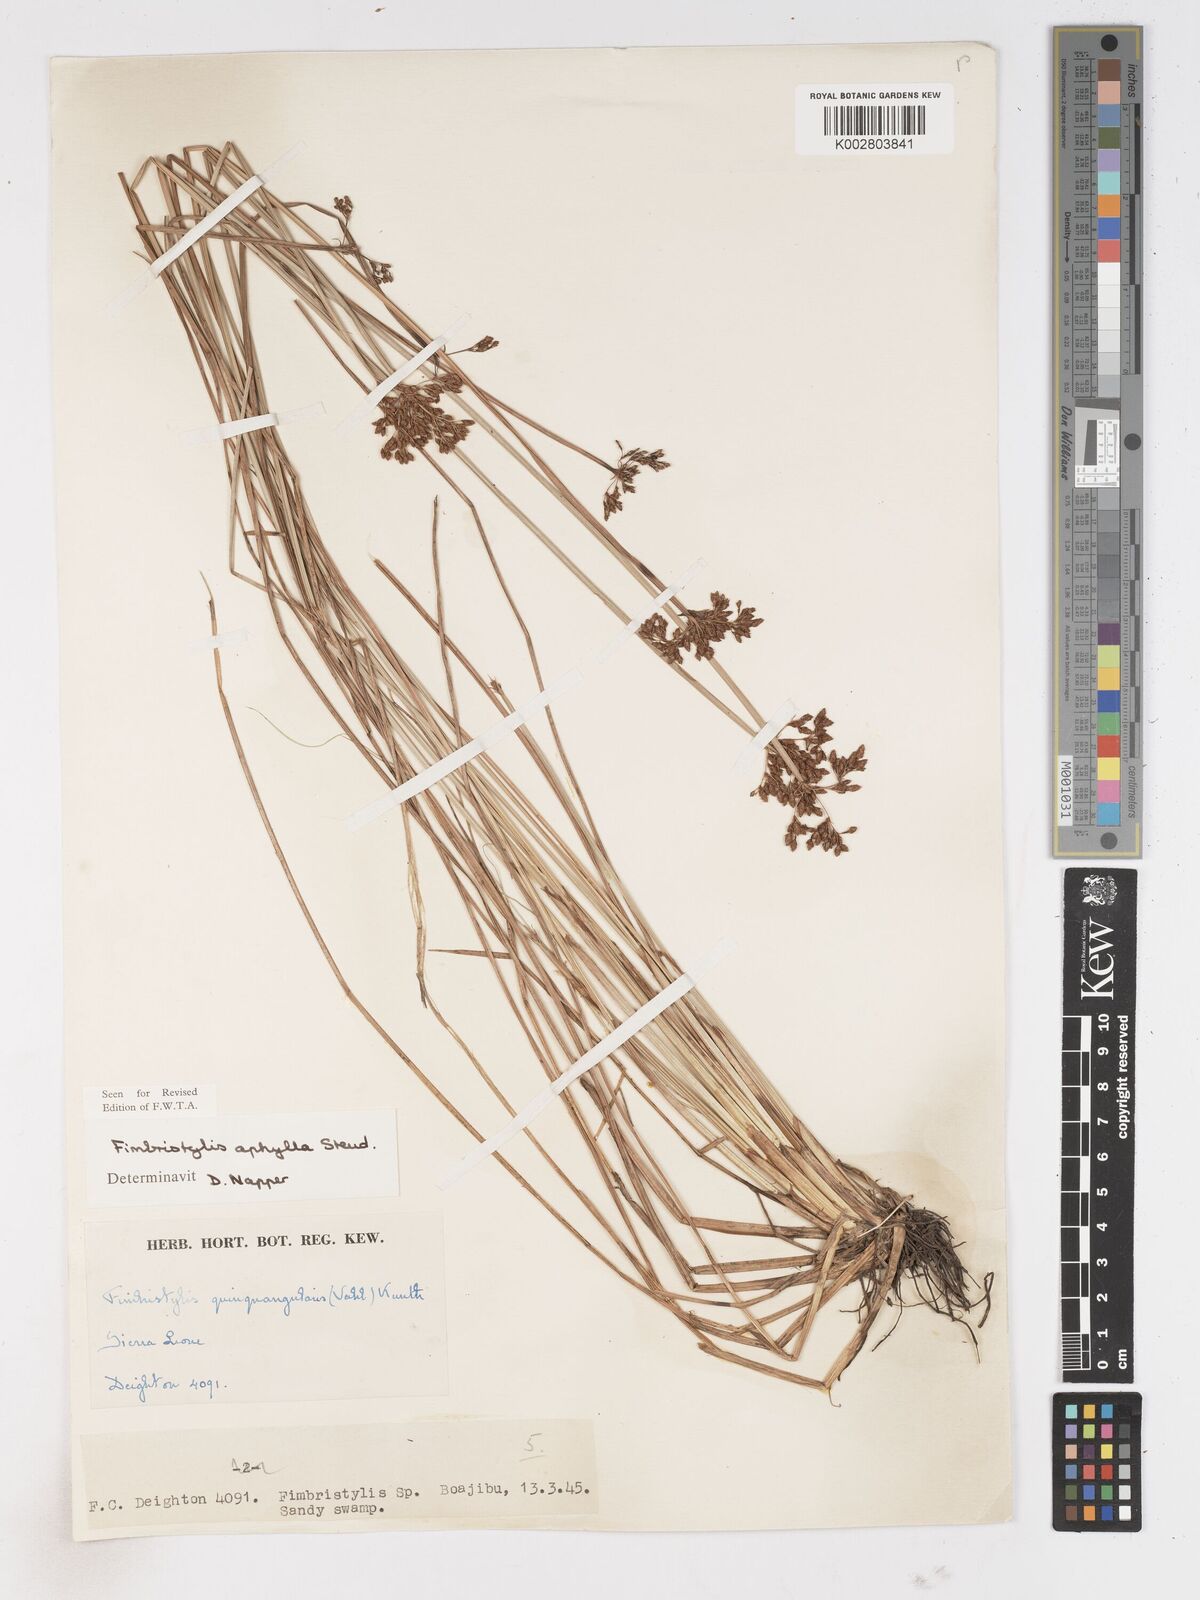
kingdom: Plantae
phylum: Tracheophyta
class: Liliopsida
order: Poales
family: Cyperaceae
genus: Fimbristylis
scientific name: Fimbristylis aphylla
